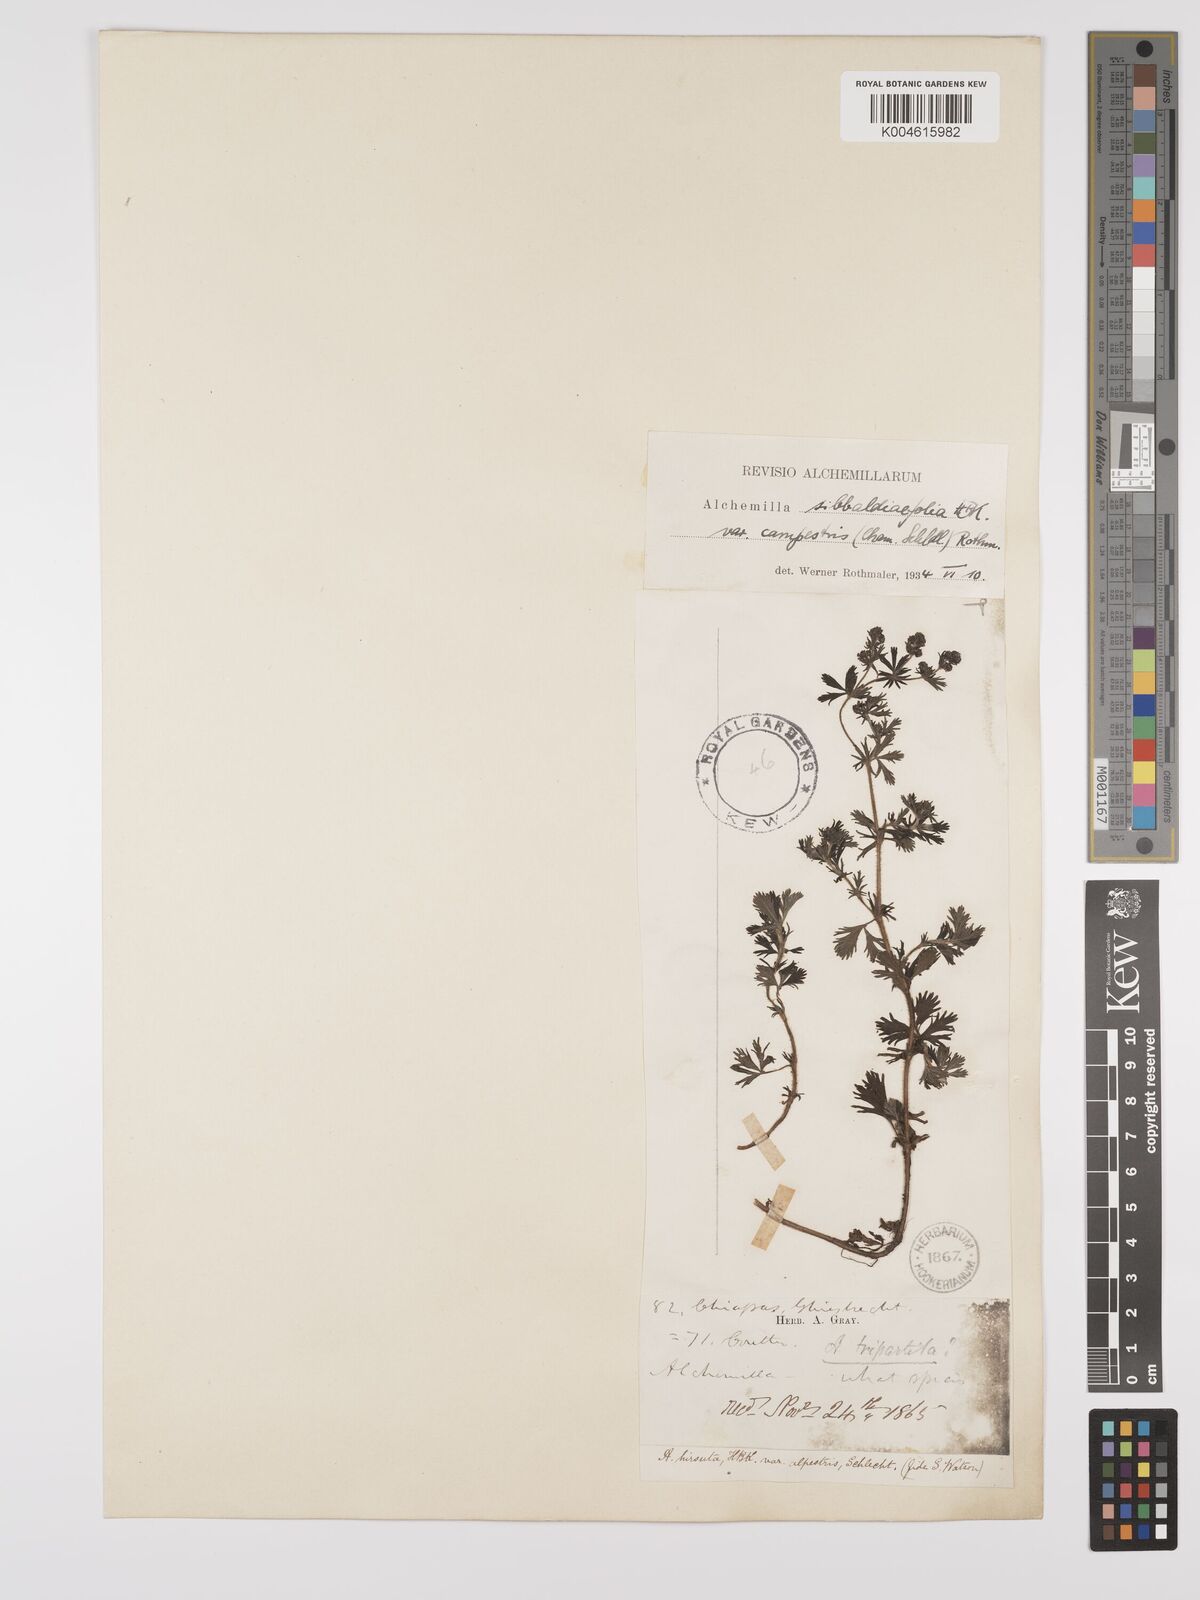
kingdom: Plantae
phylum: Tracheophyta
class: Magnoliopsida
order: Rosales
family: Rosaceae
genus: Lachemilla
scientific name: Lachemilla sibbaldiifolia
